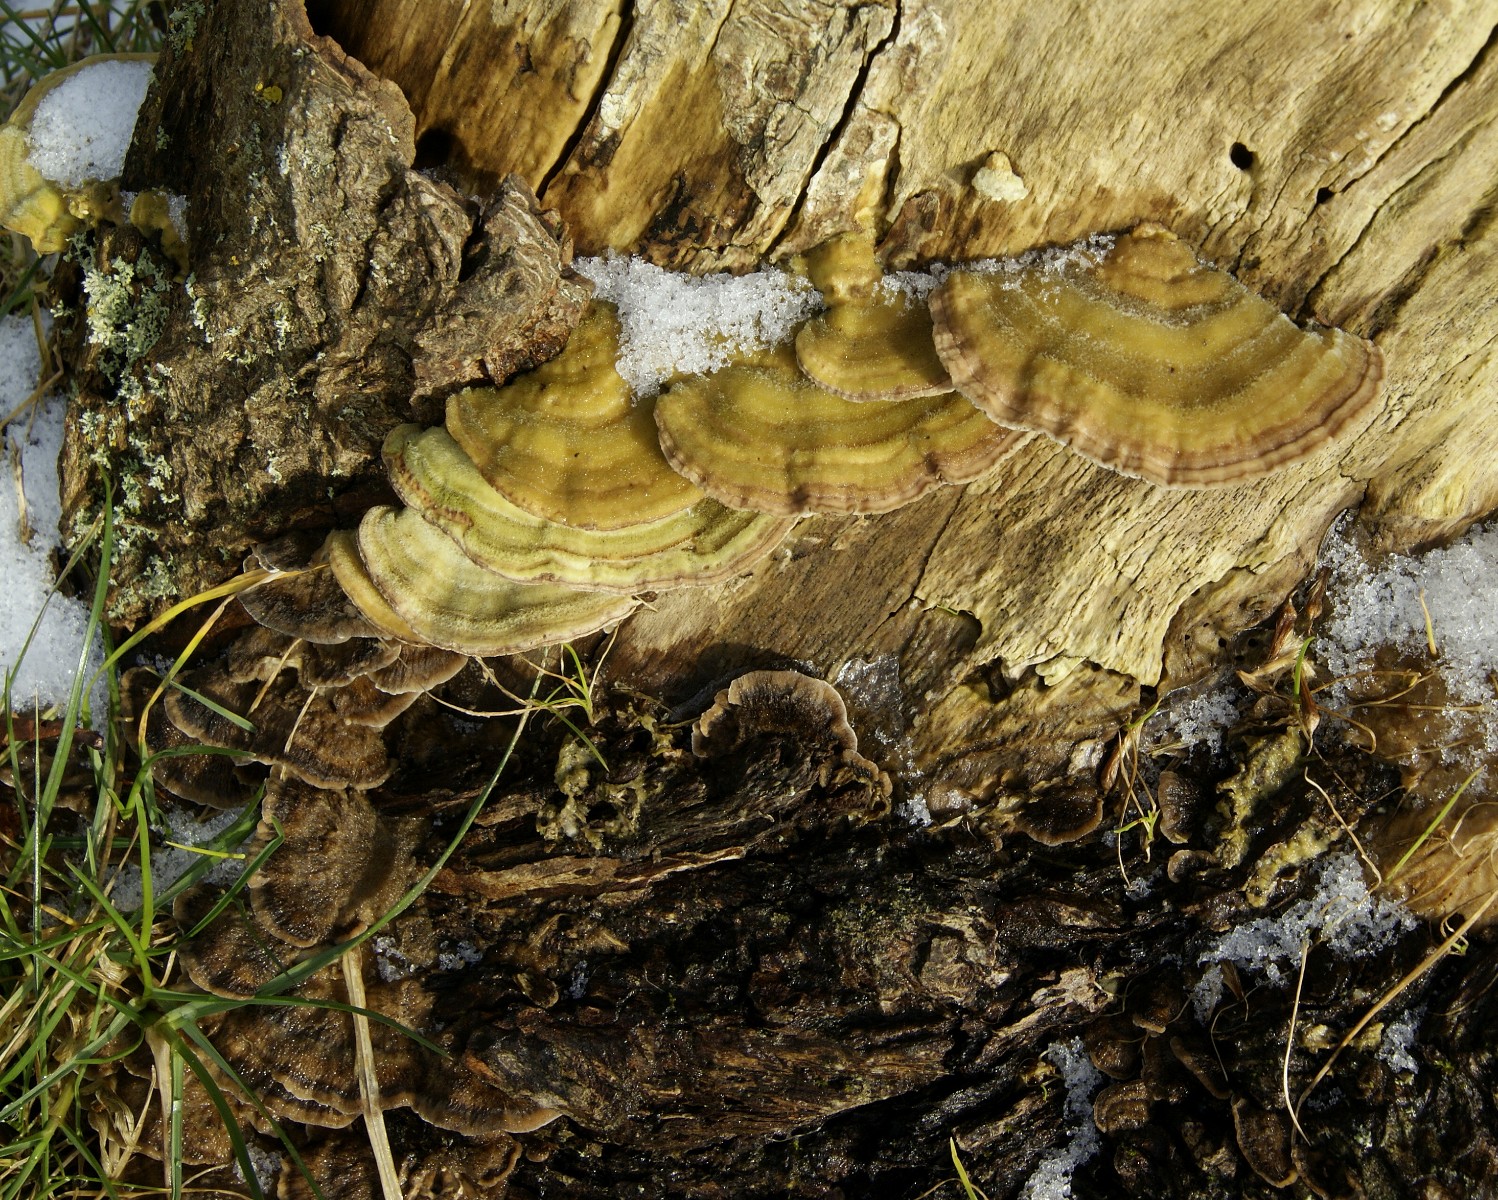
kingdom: Fungi
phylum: Basidiomycota
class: Agaricomycetes
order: Polyporales
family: Polyporaceae
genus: Lenzites
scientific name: Lenzites betulinus
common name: birke-læderporesvamp
